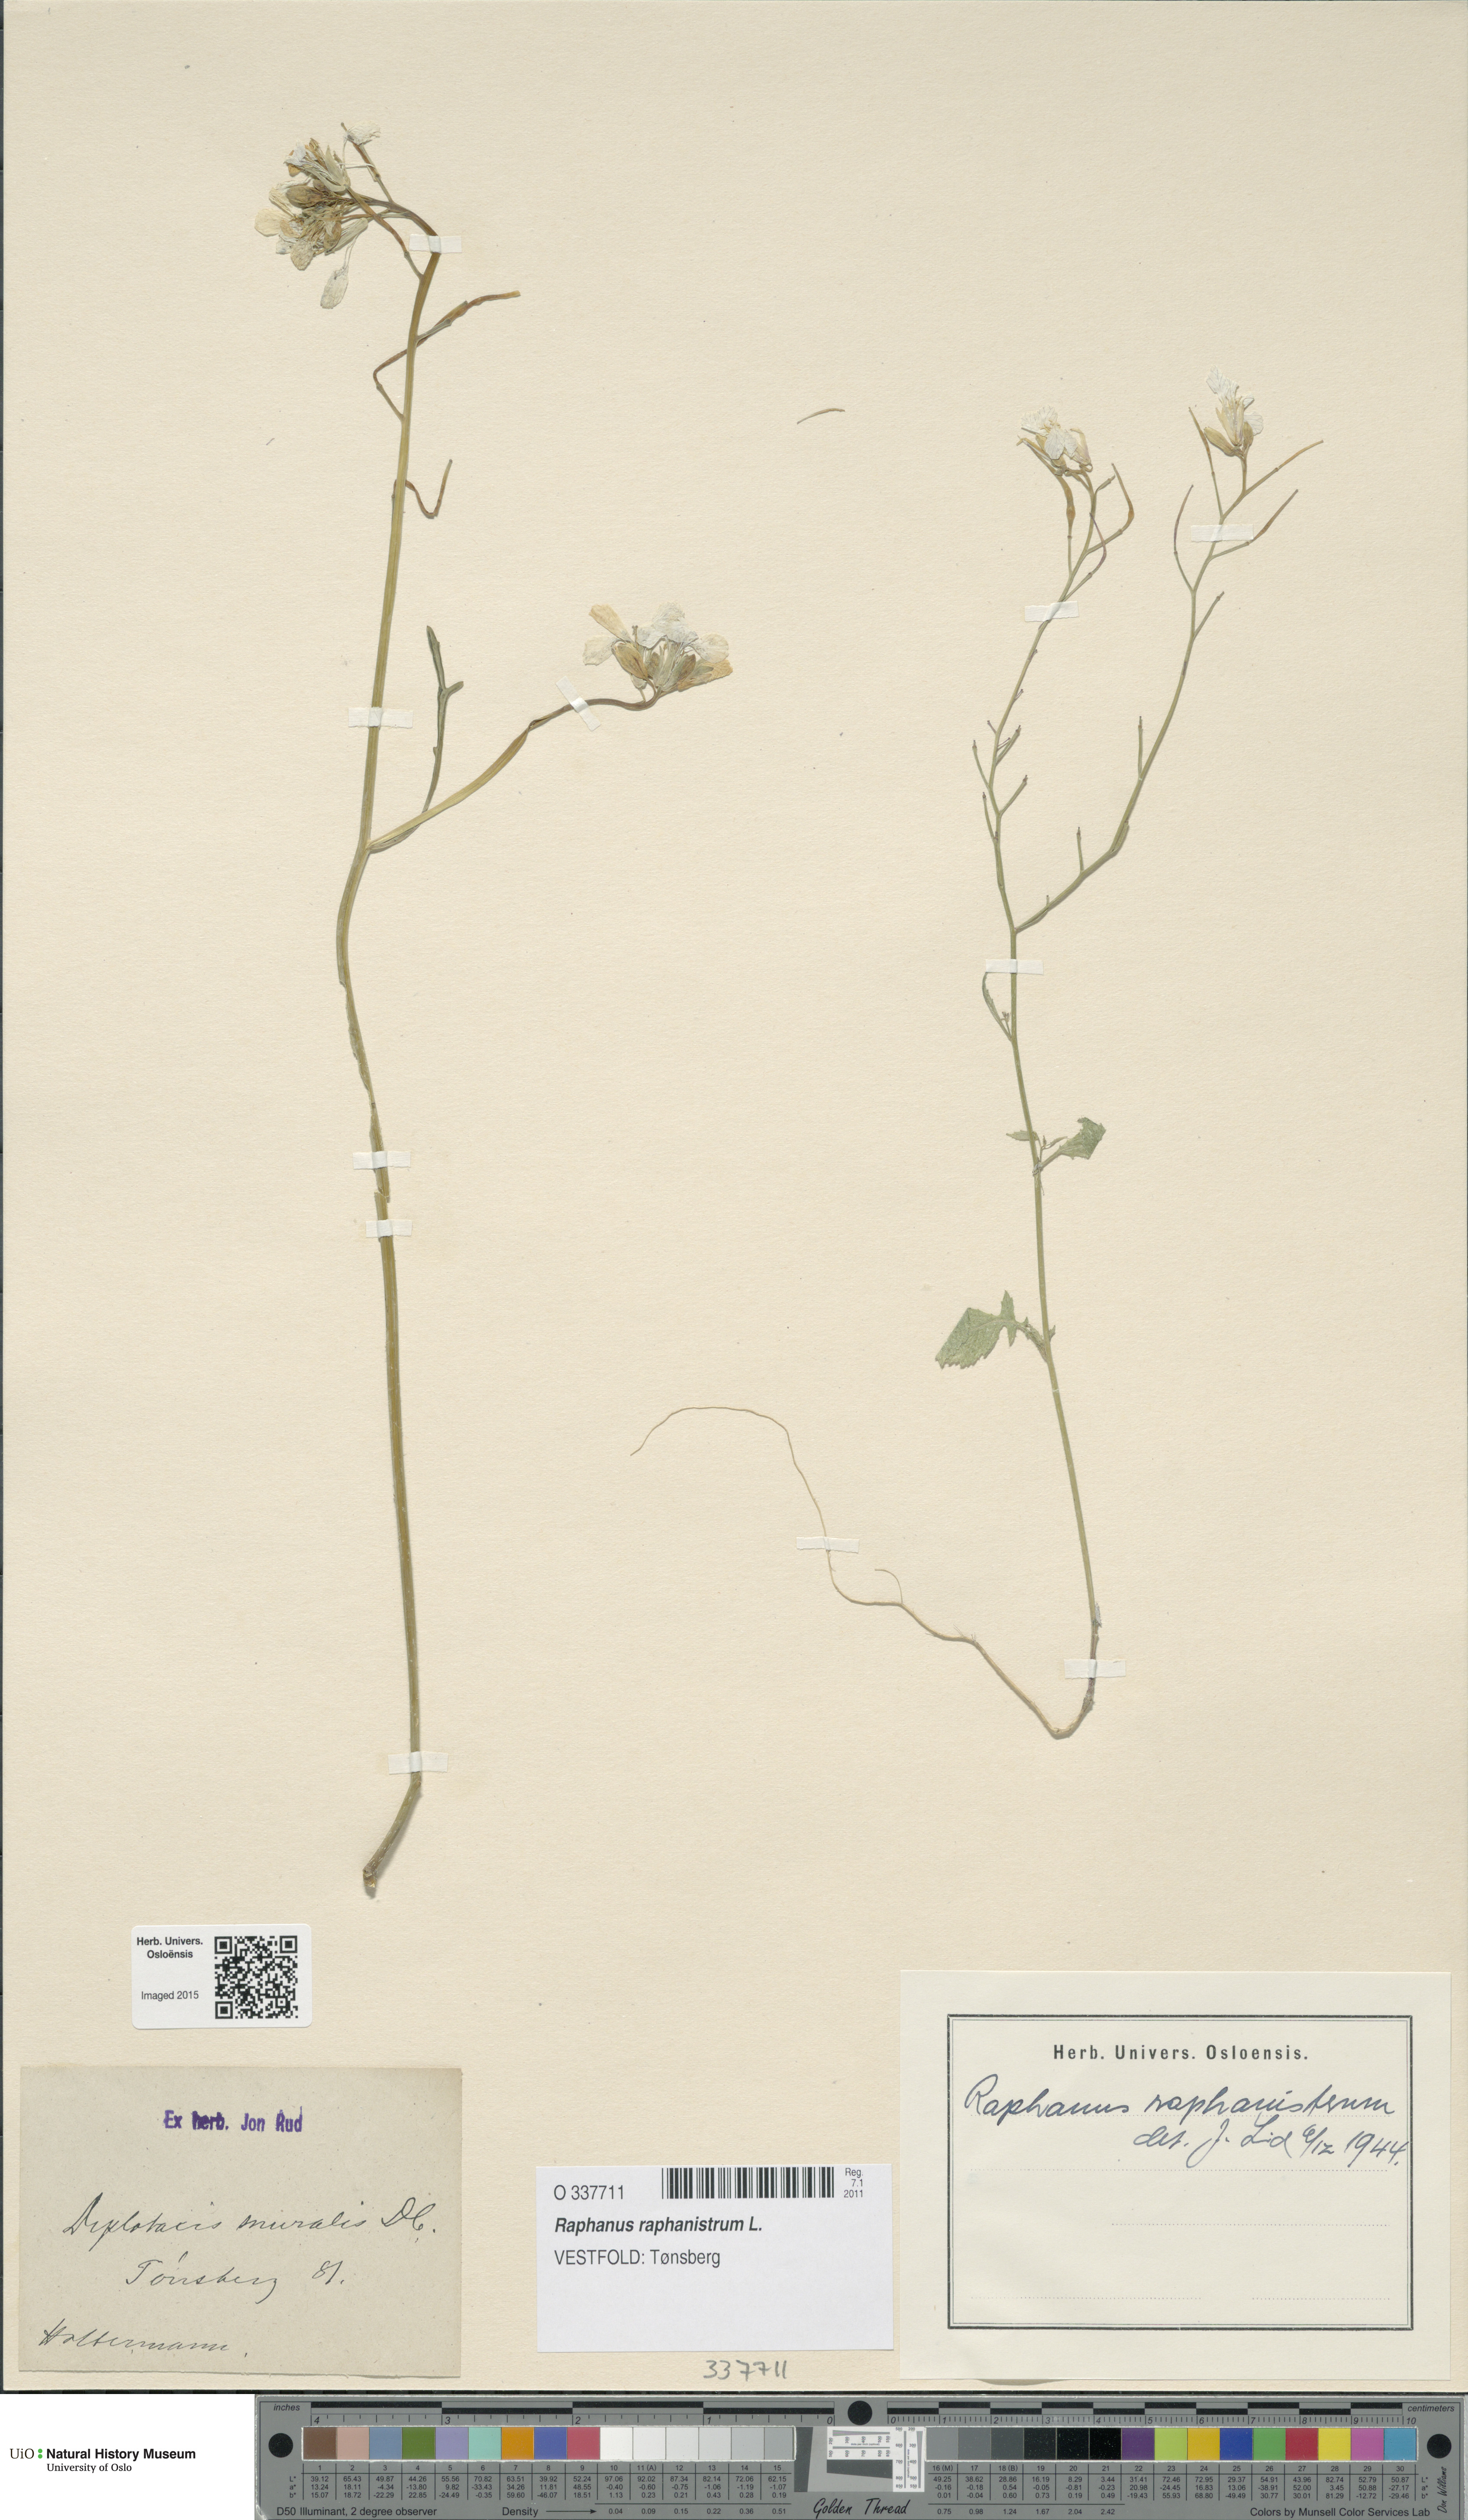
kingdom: Plantae
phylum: Tracheophyta
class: Magnoliopsida
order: Brassicales
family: Brassicaceae
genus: Raphanus
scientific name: Raphanus raphanistrum
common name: Wild radish
